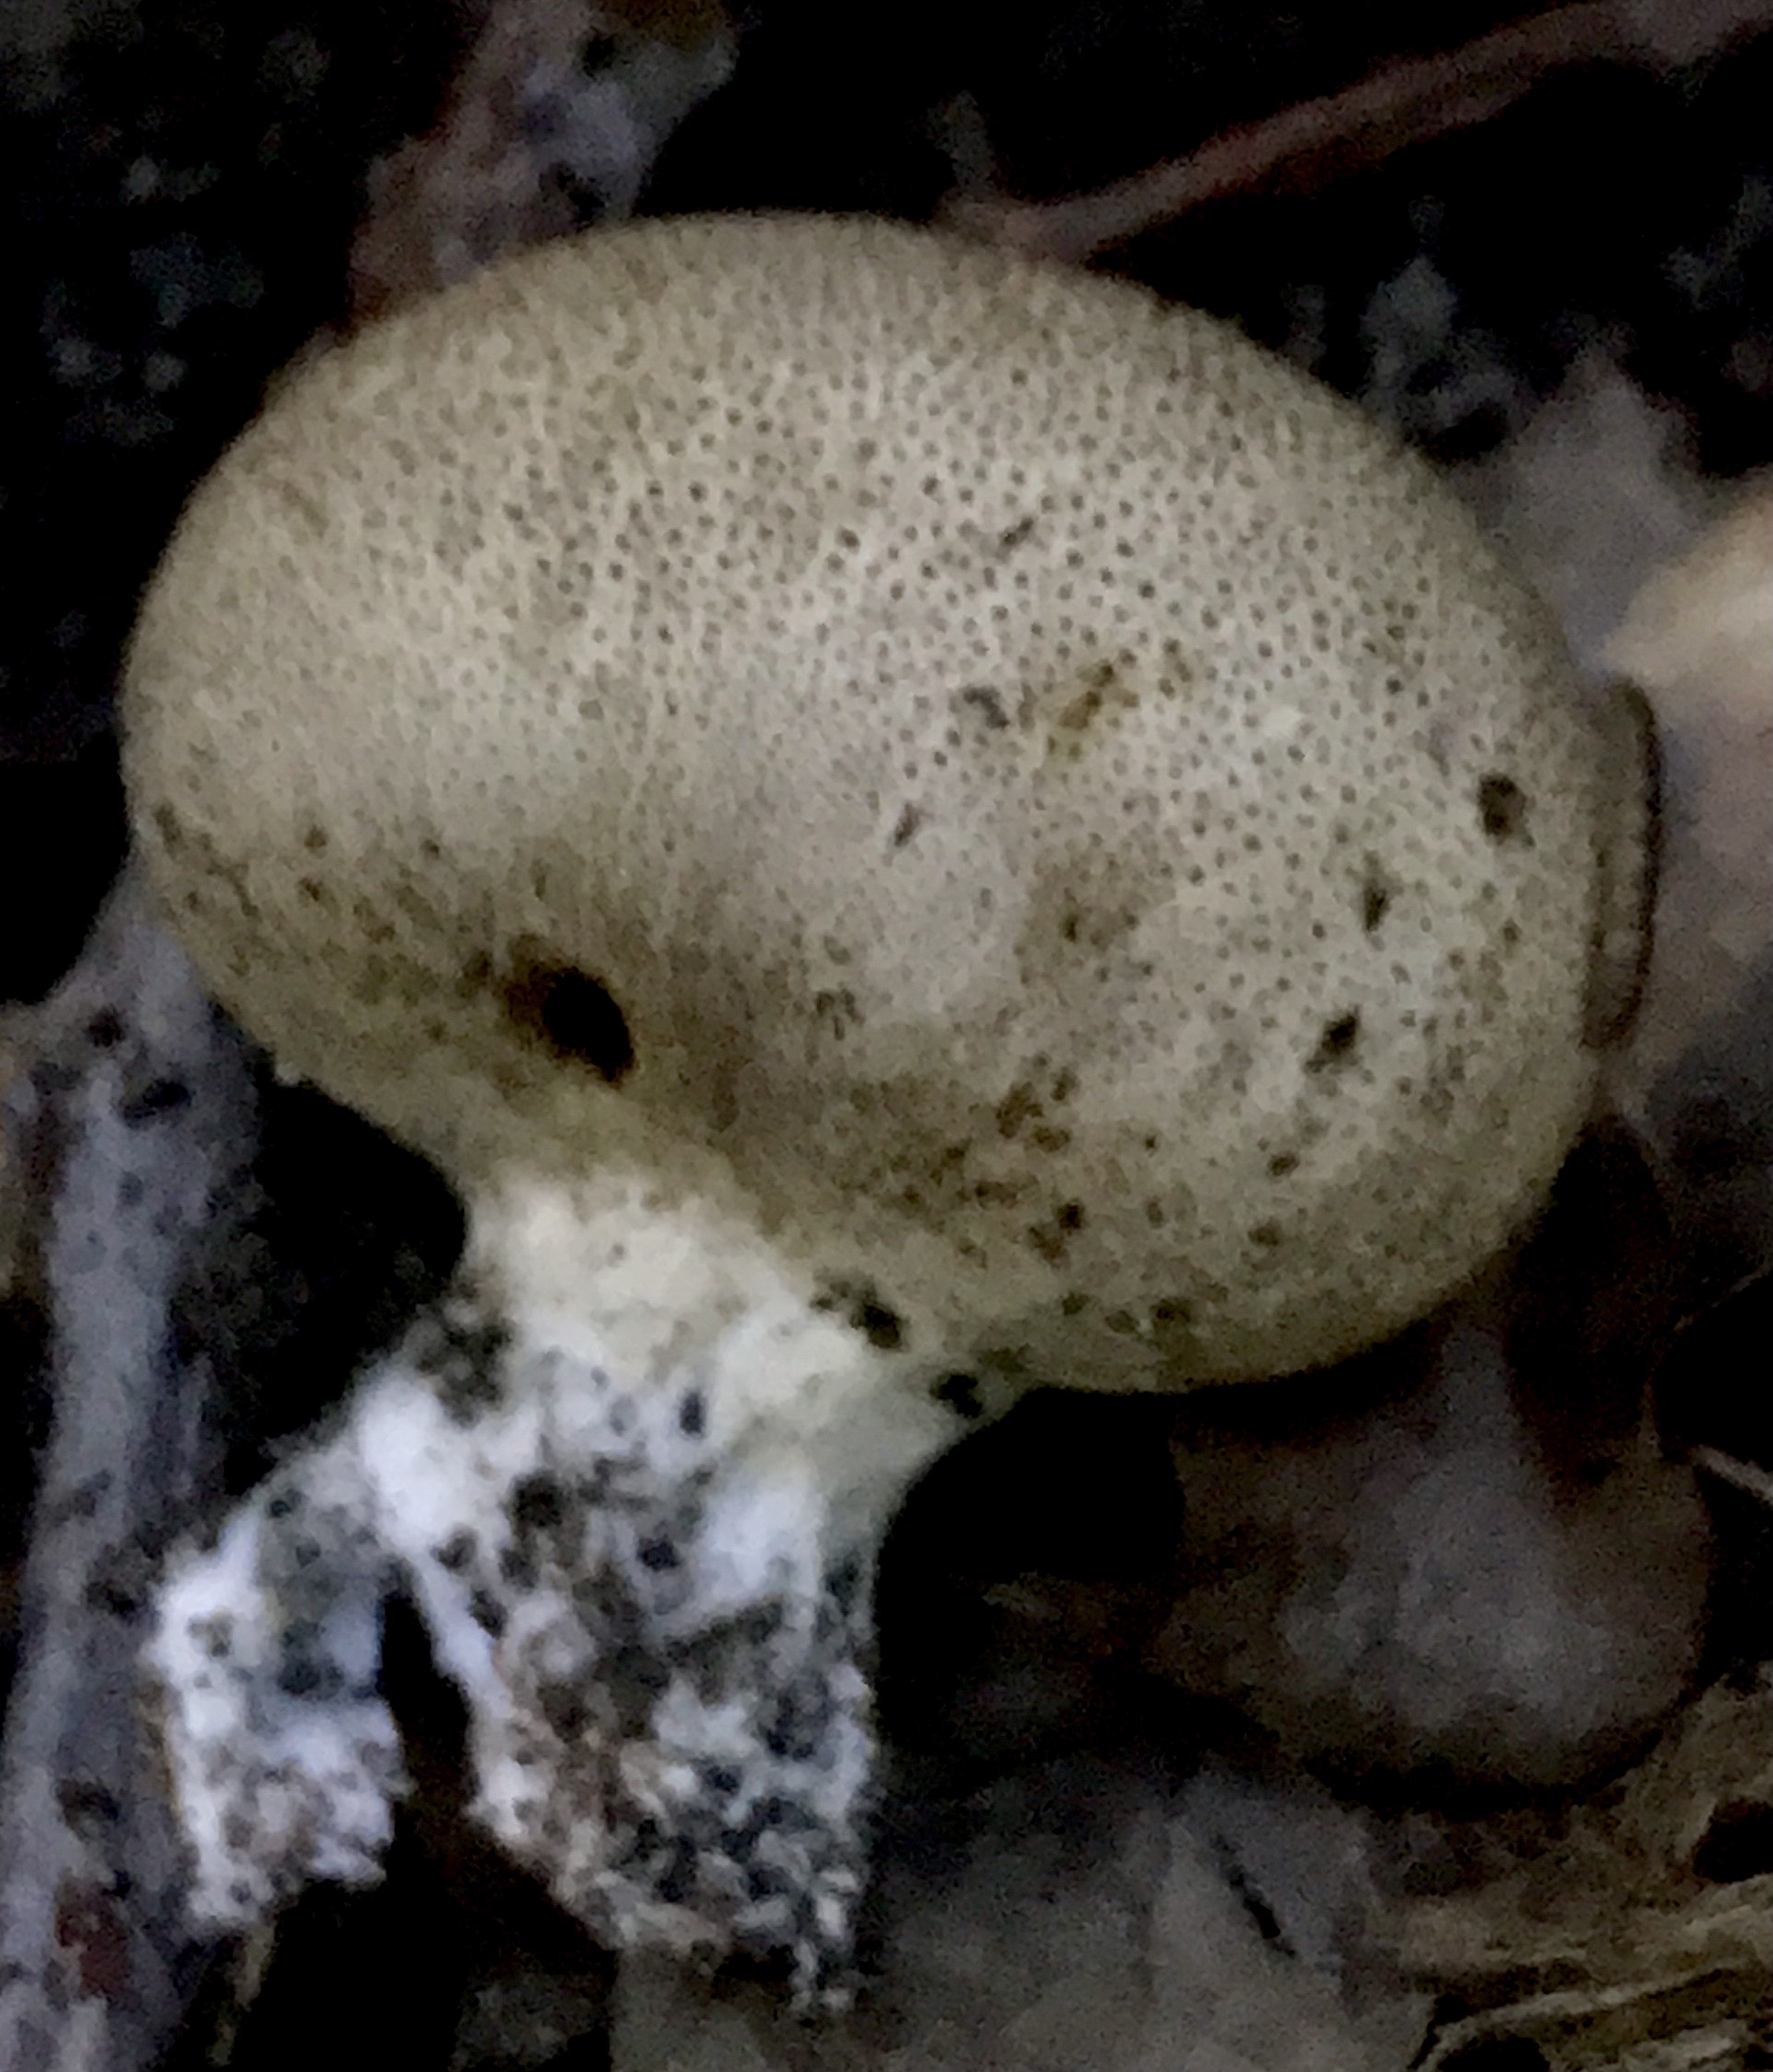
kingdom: Fungi
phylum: Basidiomycota
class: Agaricomycetes
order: Boletales
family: Sclerodermataceae
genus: Scleroderma
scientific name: Scleroderma verrucosum
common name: stilket bruskbold
